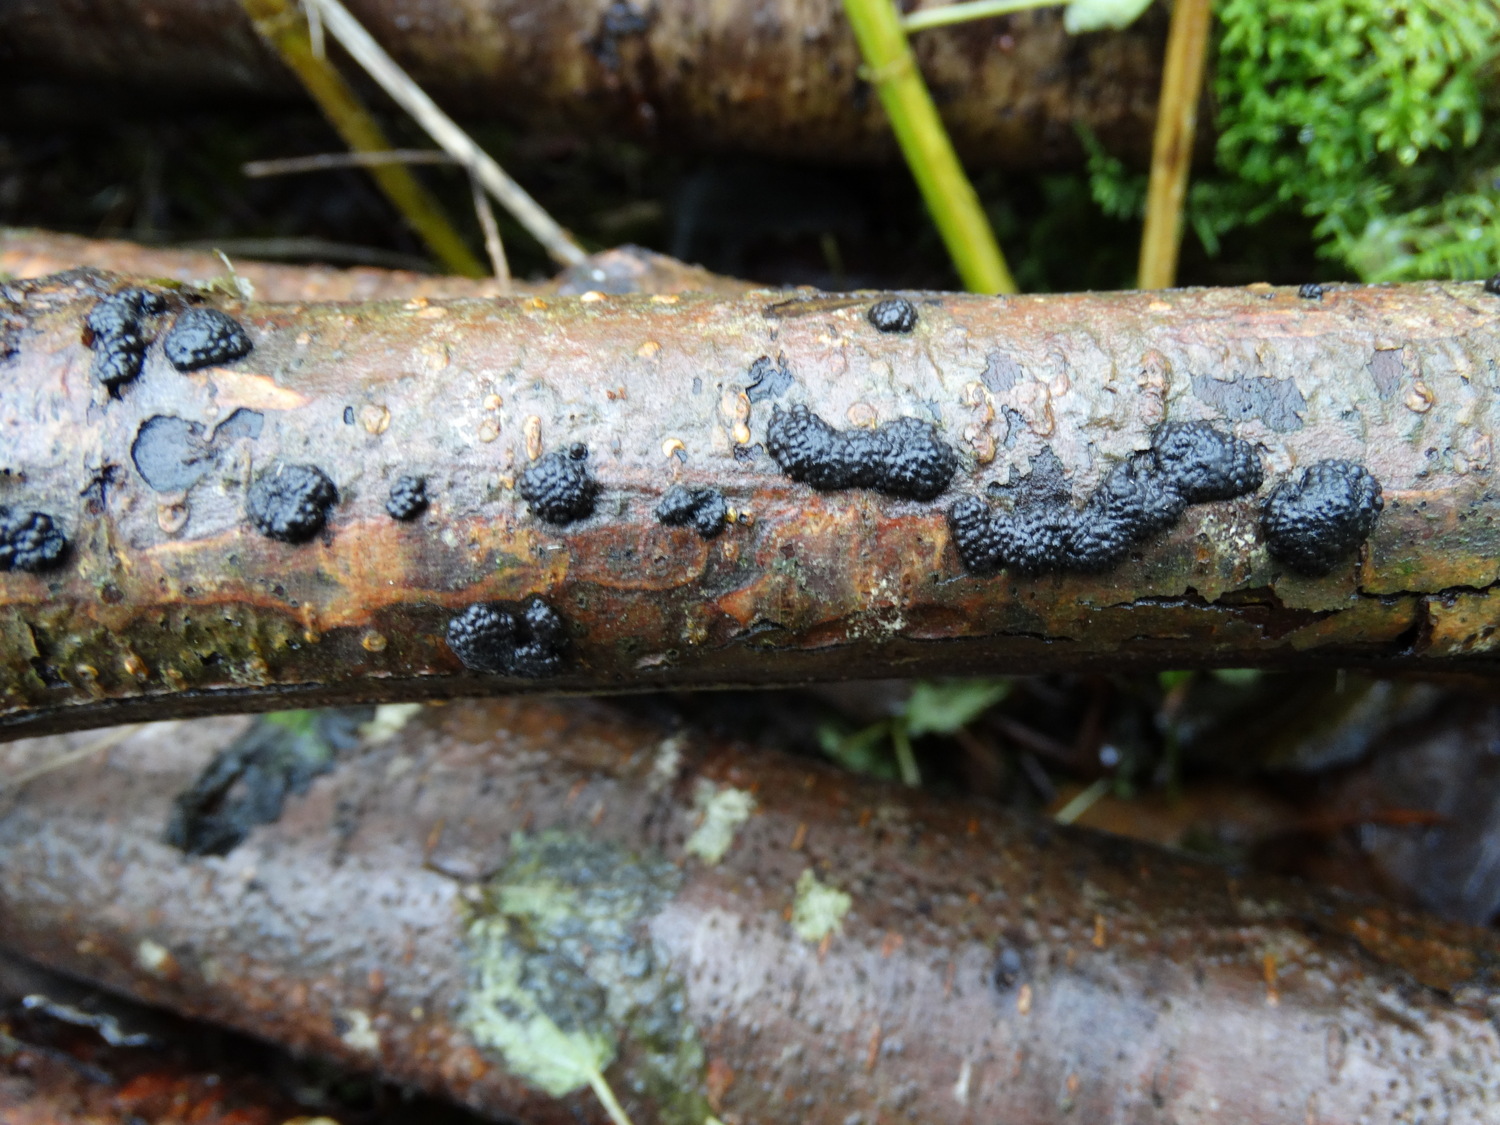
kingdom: Fungi
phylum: Ascomycota
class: Sordariomycetes
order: Xylariales
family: Hypoxylaceae
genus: Jackrogersella
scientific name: Jackrogersella multiformis
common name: foranderlig kulbær
